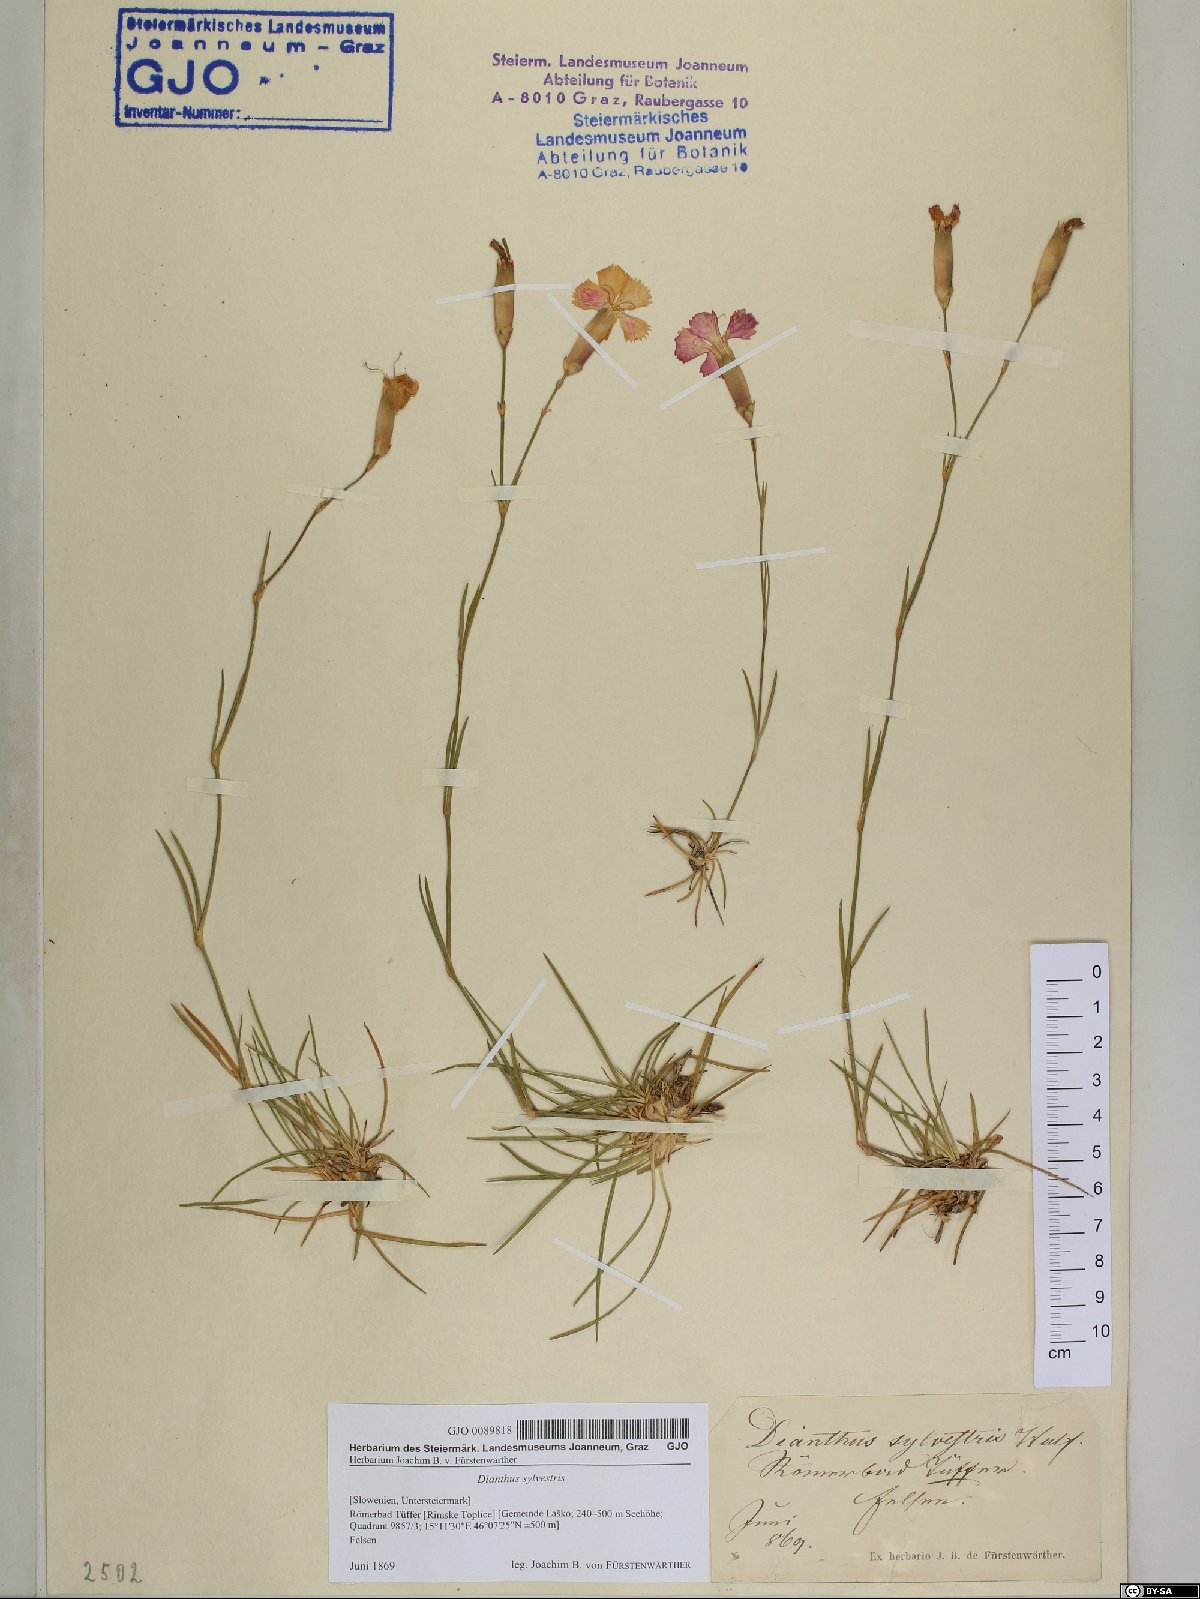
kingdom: Plantae
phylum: Tracheophyta
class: Magnoliopsida
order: Caryophyllales
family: Caryophyllaceae
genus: Dianthus
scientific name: Dianthus sylvestris
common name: Wood pink
